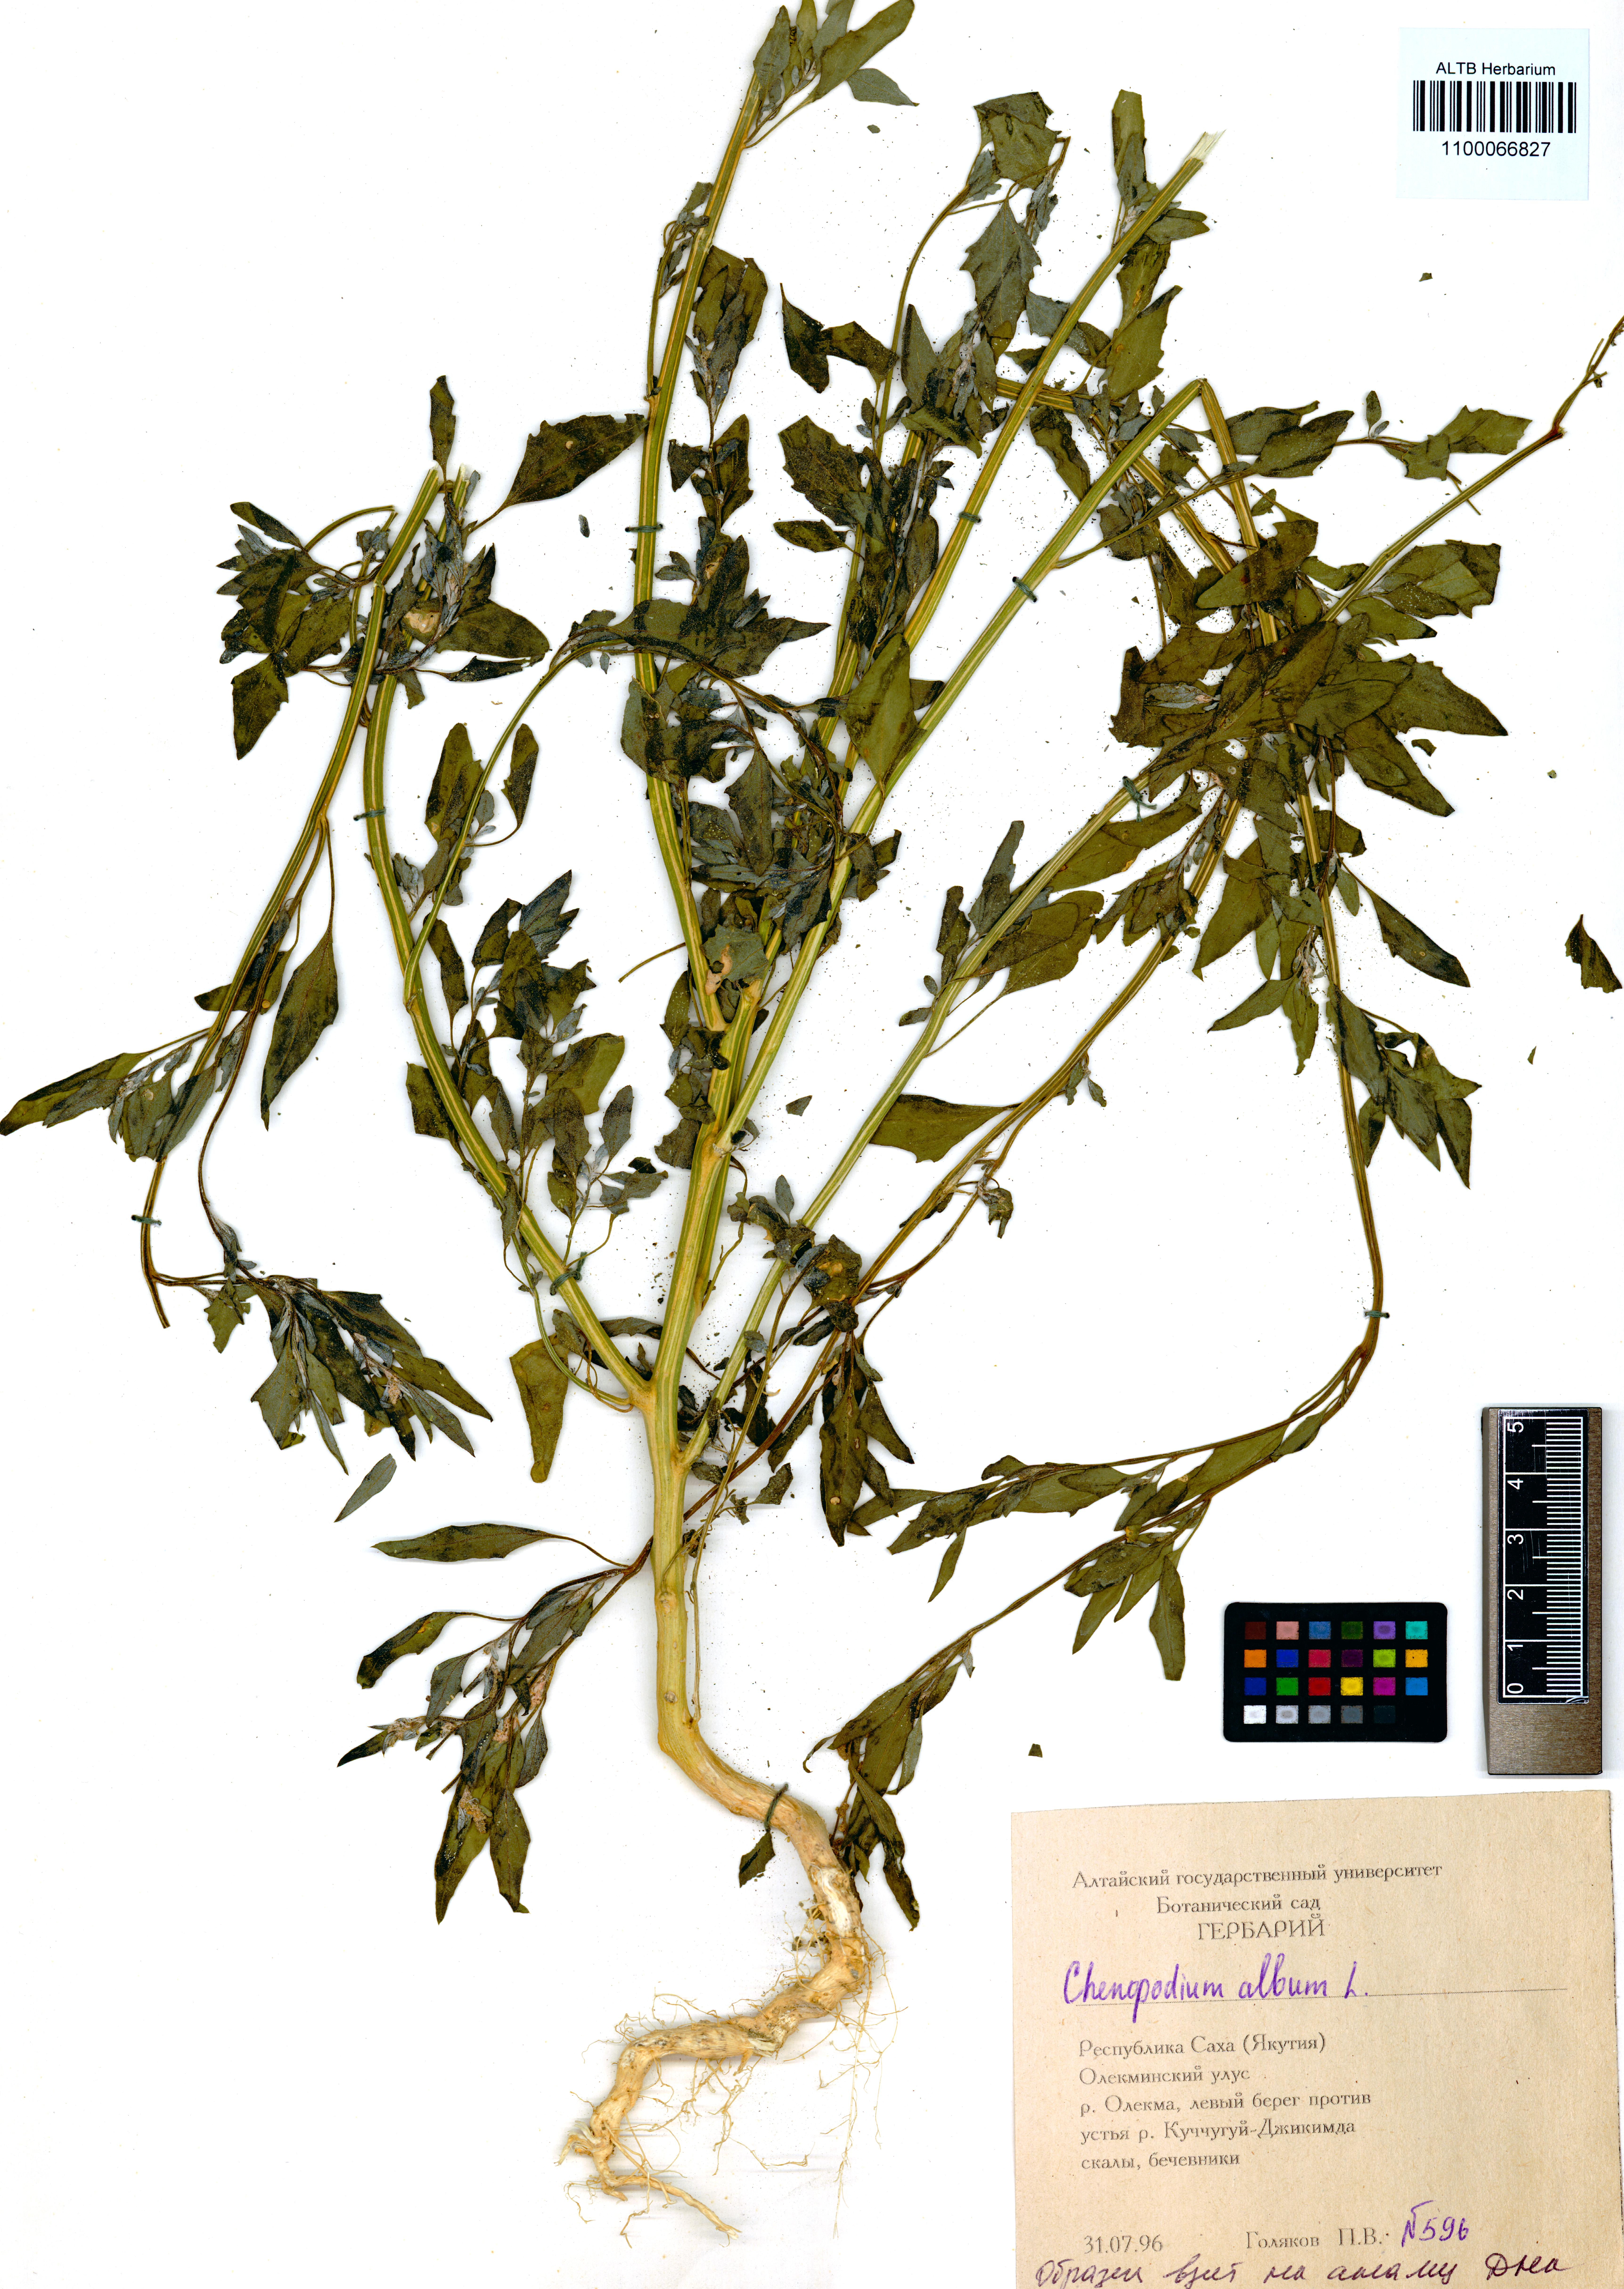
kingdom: Plantae
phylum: Tracheophyta
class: Magnoliopsida
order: Caryophyllales
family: Amaranthaceae
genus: Chenopodium
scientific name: Chenopodium album
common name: Fat-hen
